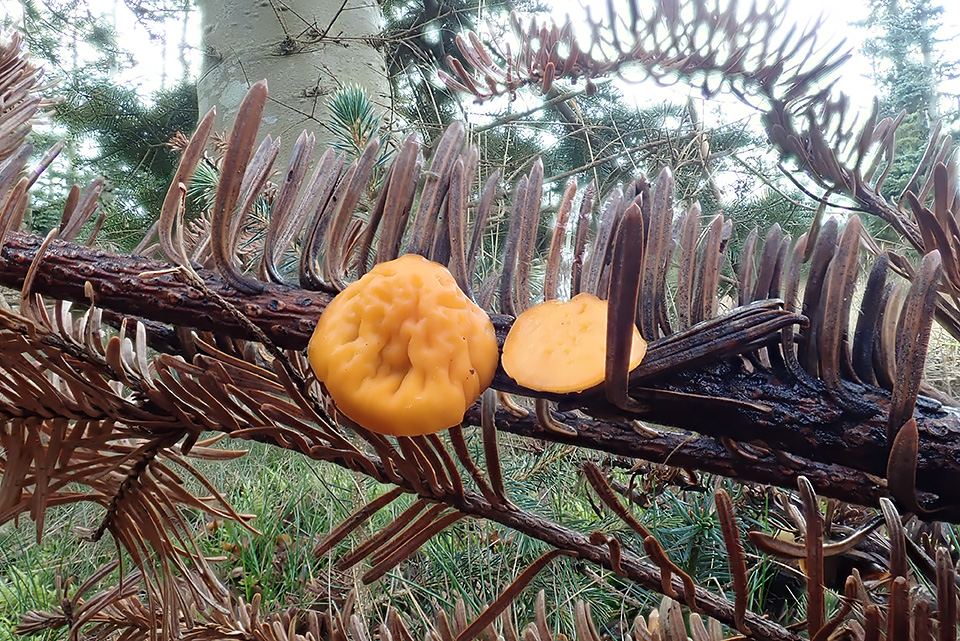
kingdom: Fungi
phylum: Ascomycota
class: Pezizomycetes
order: Pezizales
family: Sarcoscyphaceae
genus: Pithya
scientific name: Pithya vulgaris
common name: stor dukatbæger
